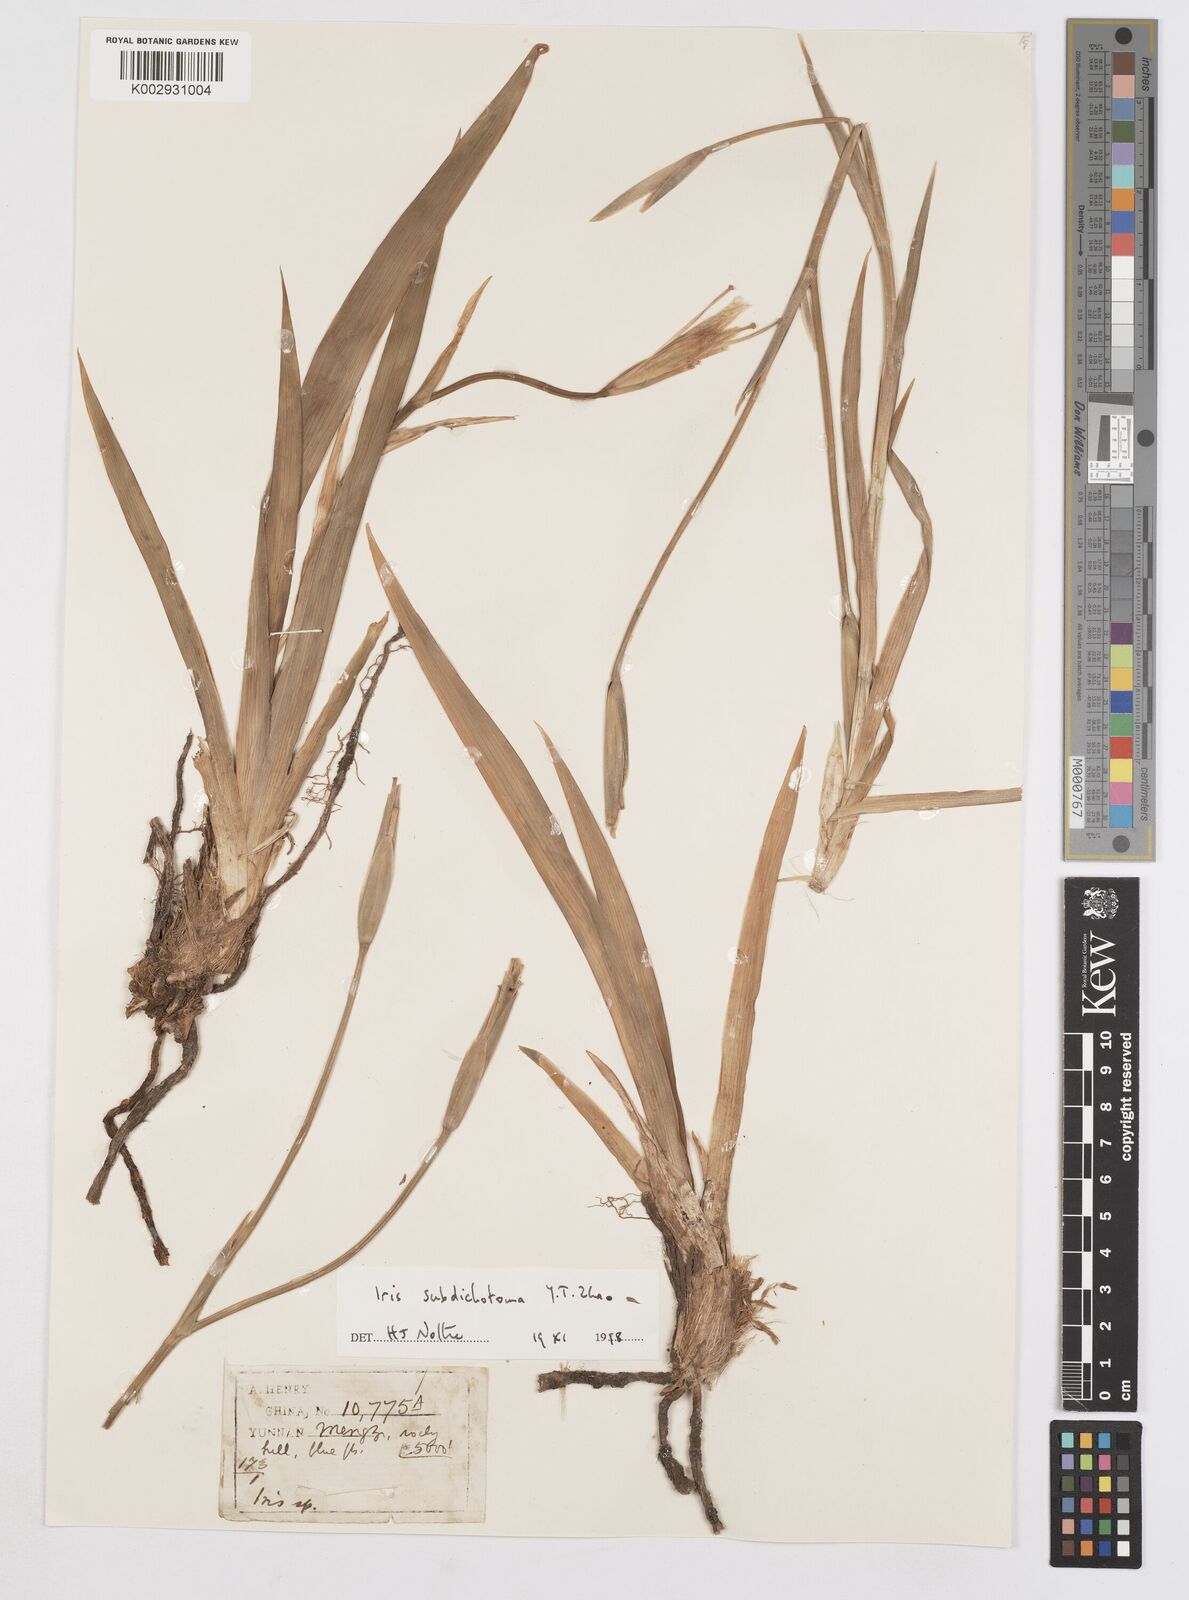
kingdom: Plantae
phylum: Tracheophyta
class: Liliopsida
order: Asparagales
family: Iridaceae
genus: Iris
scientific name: Iris subdichotoma
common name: Zhongdian iris
